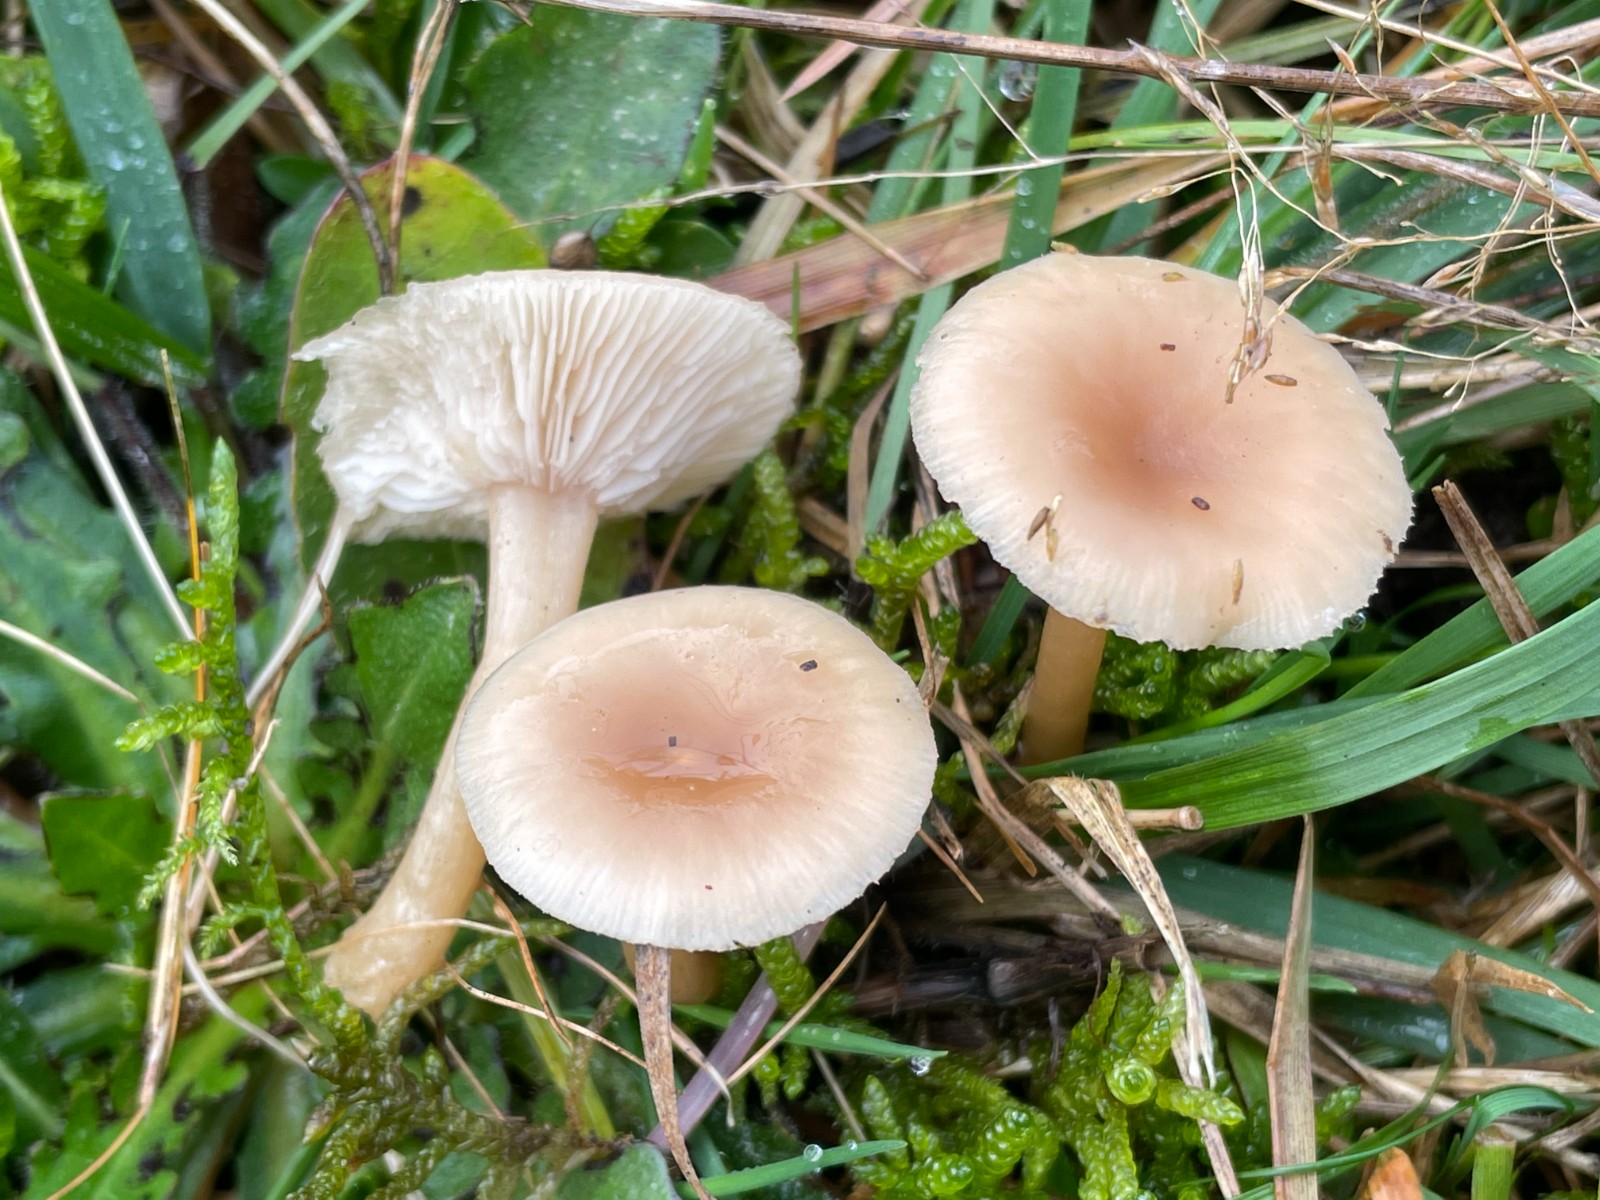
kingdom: Fungi
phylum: Basidiomycota
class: Agaricomycetes
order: Agaricales
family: Tricholomataceae
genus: Clitocybe
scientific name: Clitocybe fragrans
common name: vellugtende tragthat
